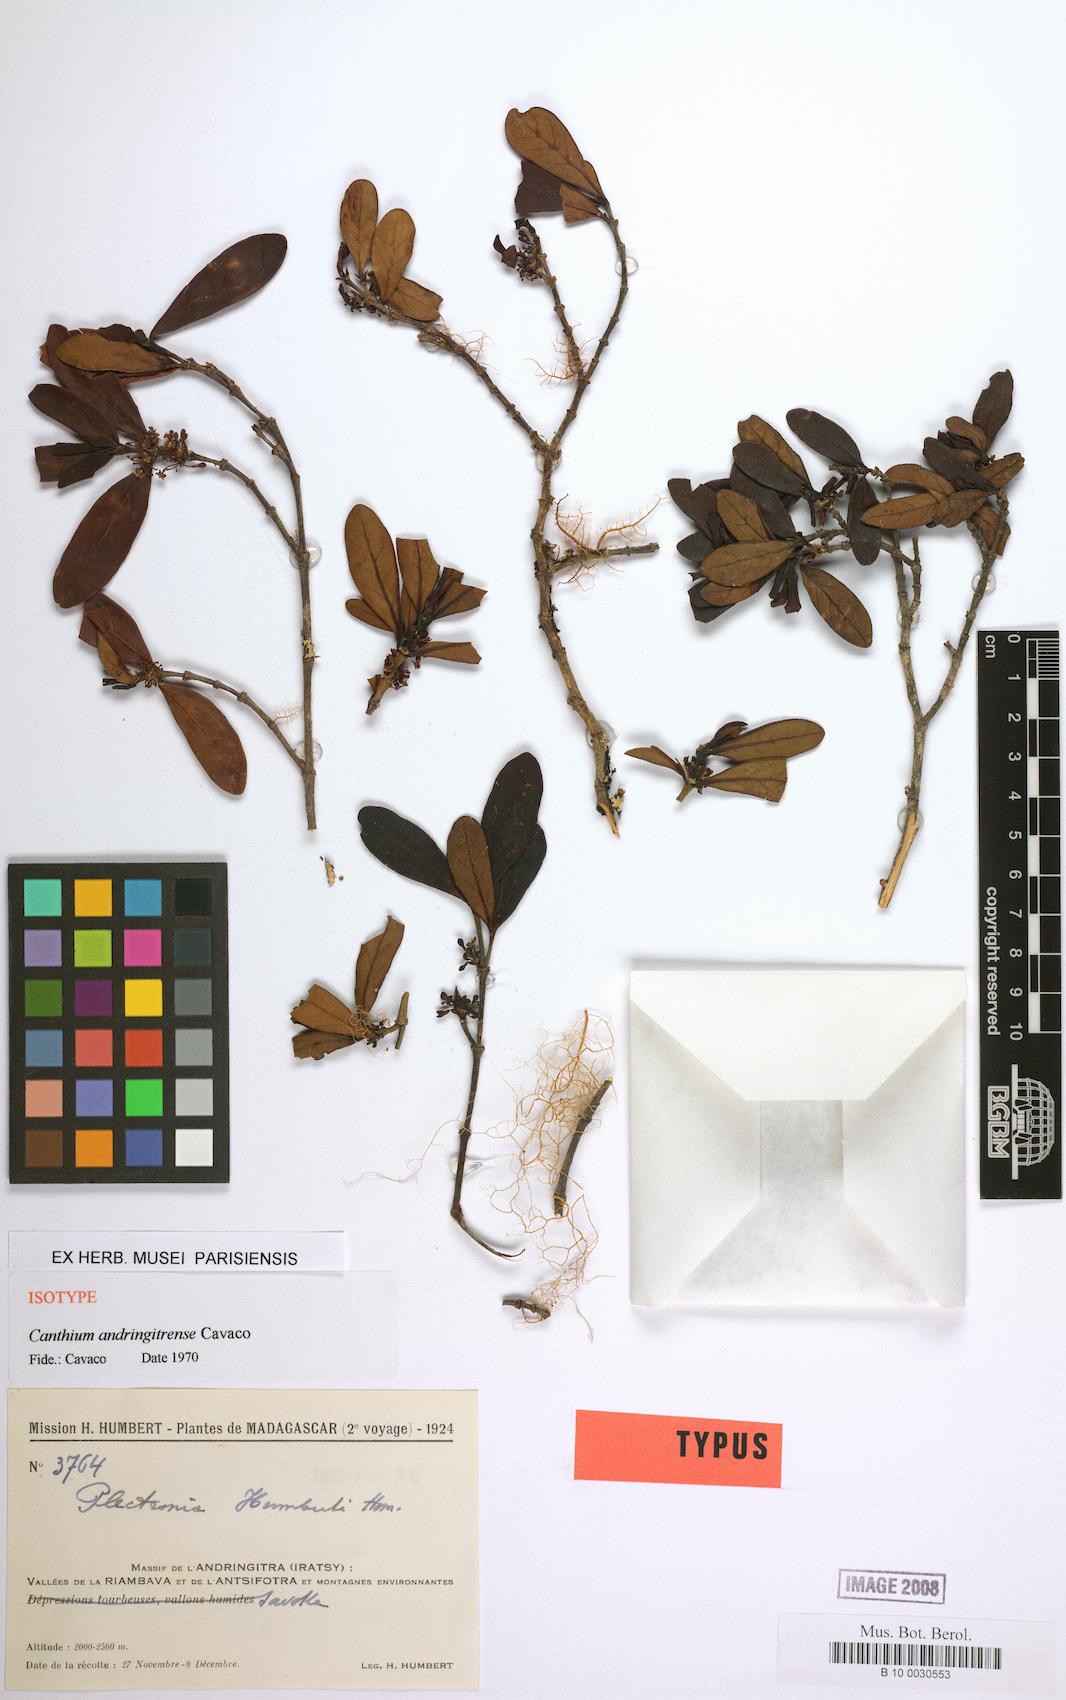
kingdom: Plantae
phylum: Tracheophyta
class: Magnoliopsida
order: Gentianales
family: Rubiaceae
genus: Pyrostria
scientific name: Pyrostria andringitrensis
